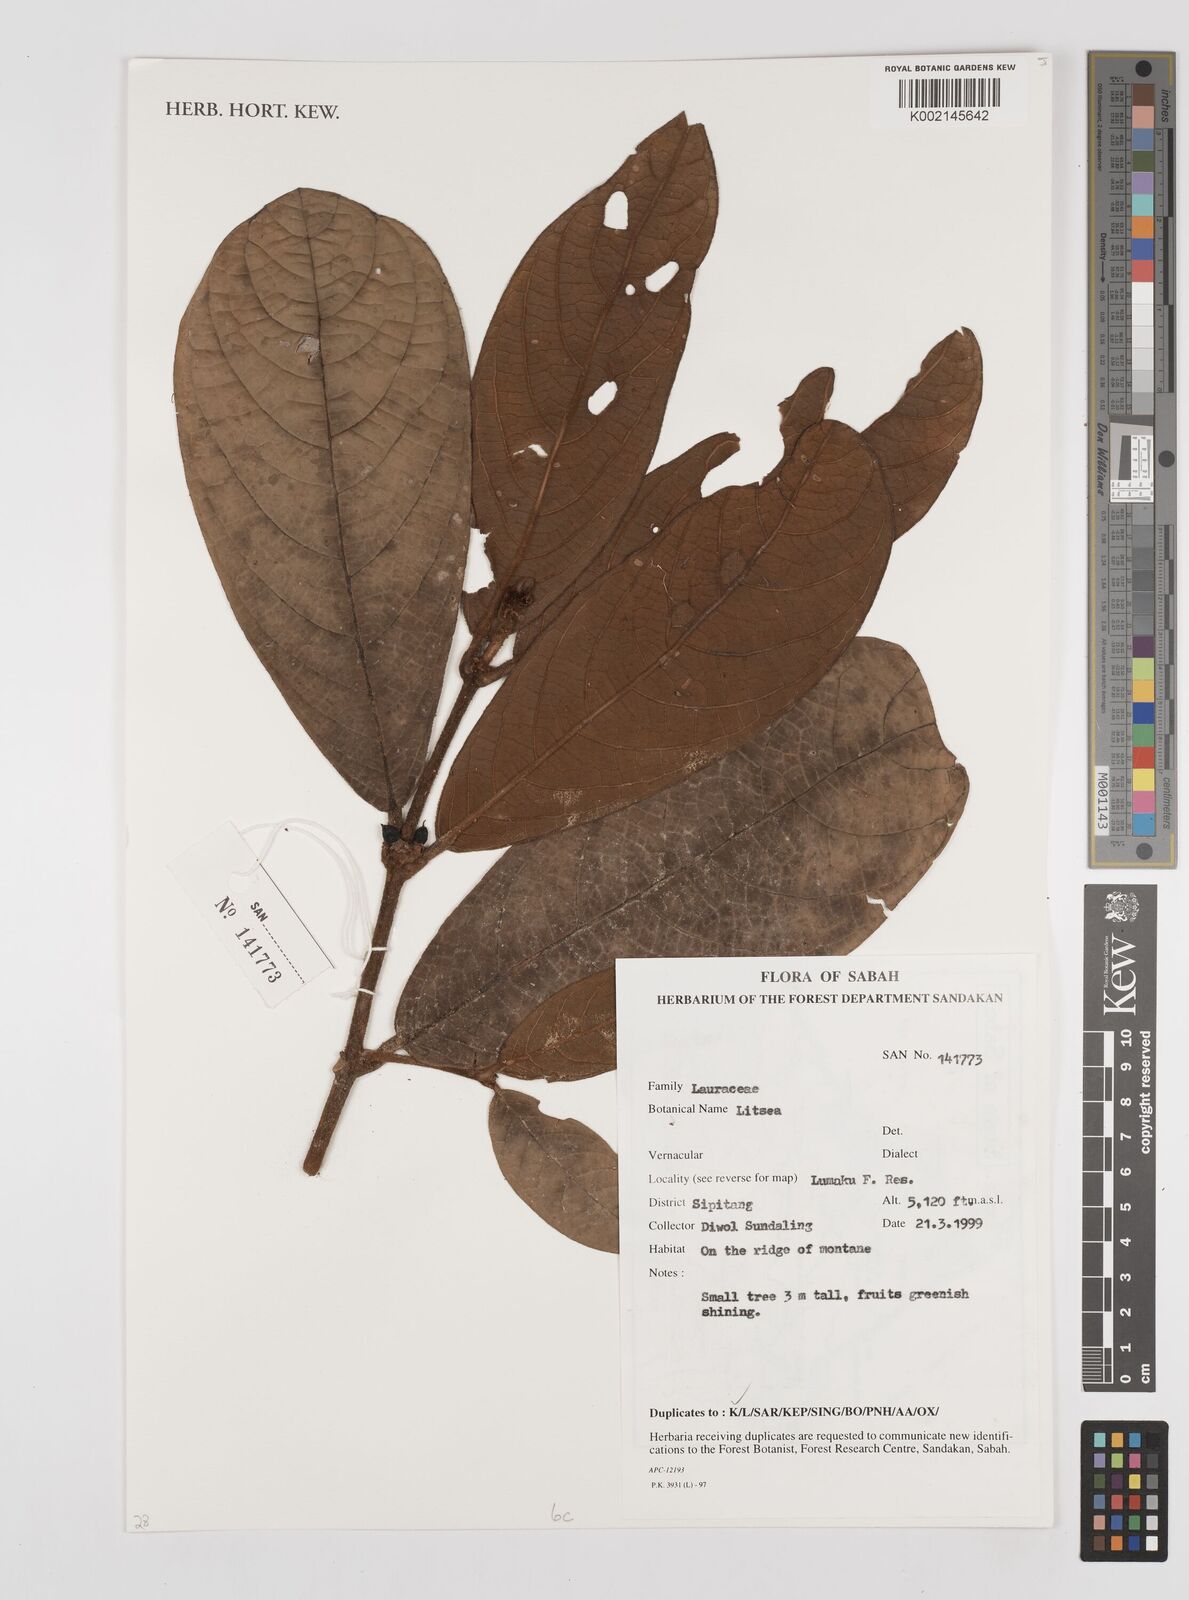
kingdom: Plantae
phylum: Tracheophyta
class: Magnoliopsida
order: Laurales
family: Lauraceae
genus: Litsea
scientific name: Litsea
